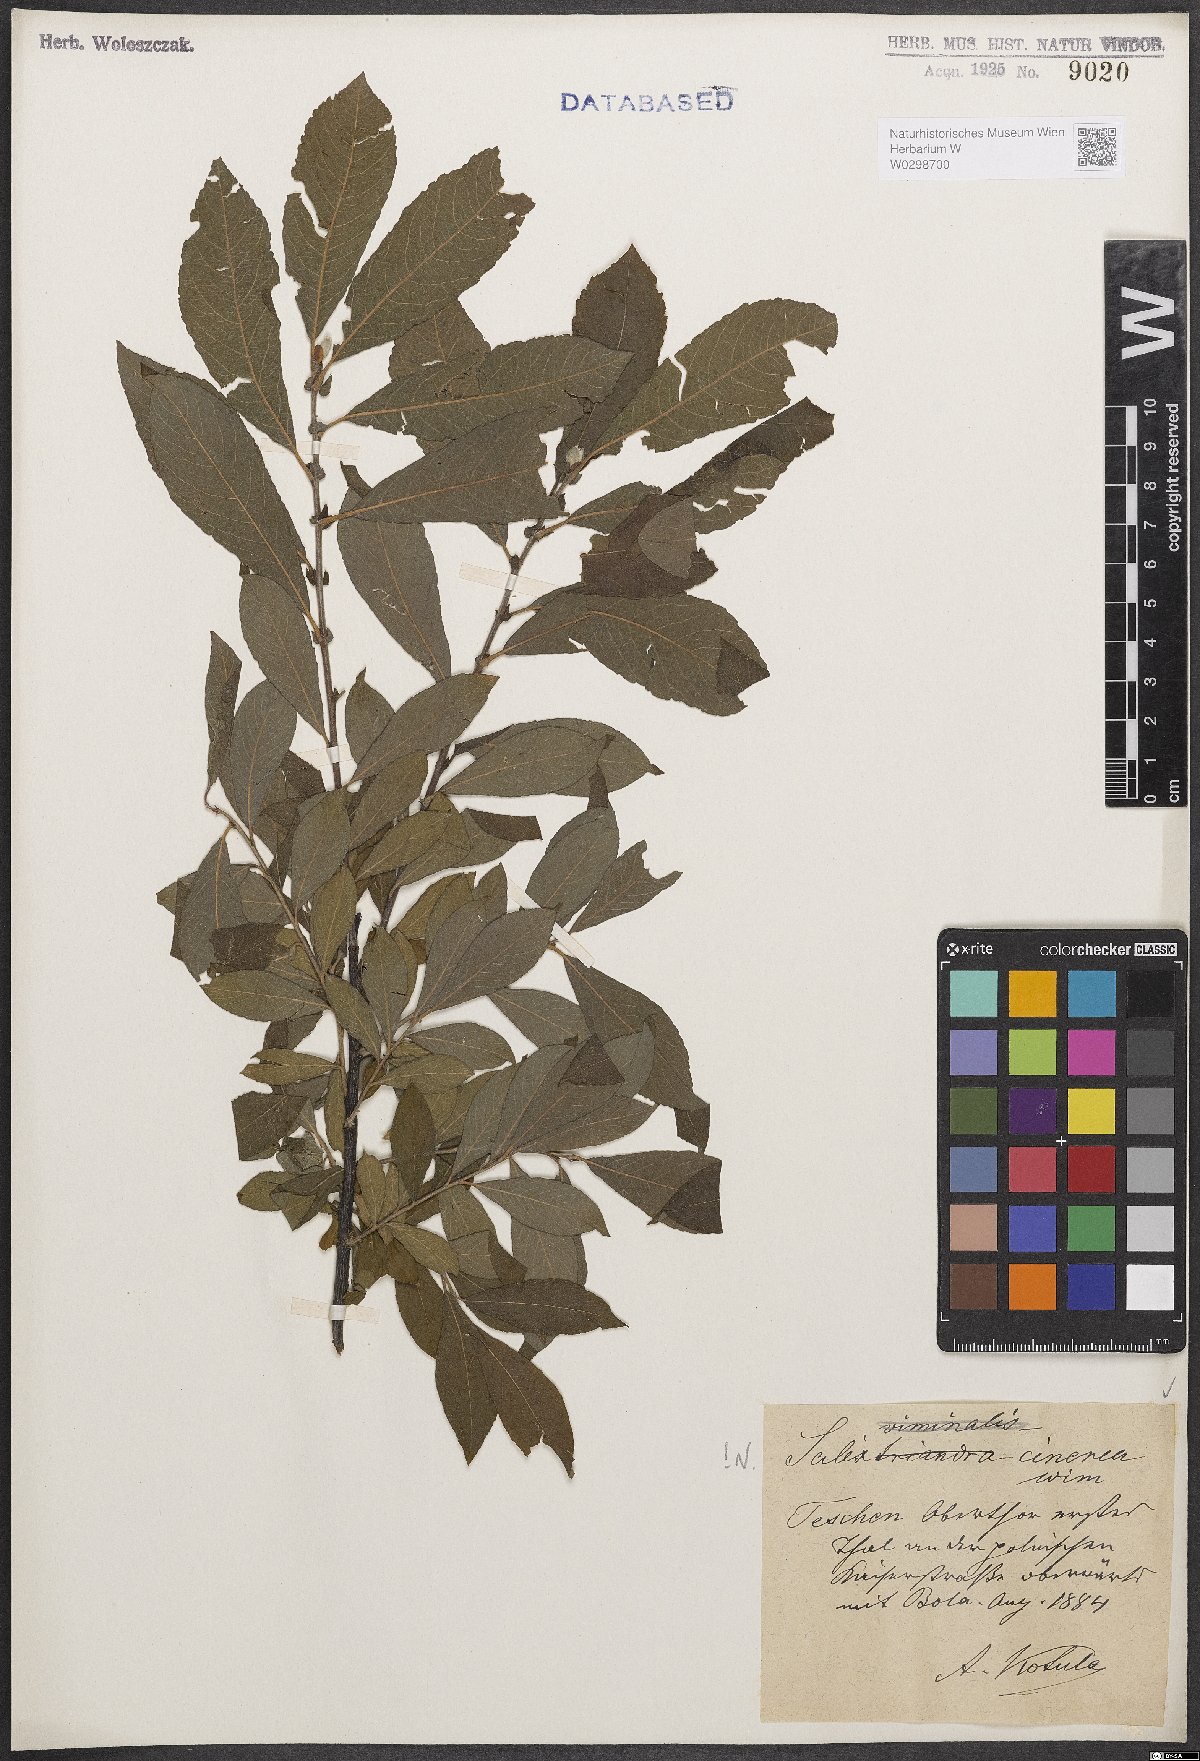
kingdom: Plantae
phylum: Tracheophyta
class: Magnoliopsida
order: Malpighiales
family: Salicaceae
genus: Salix
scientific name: Salix cinerea
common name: Common sallow
